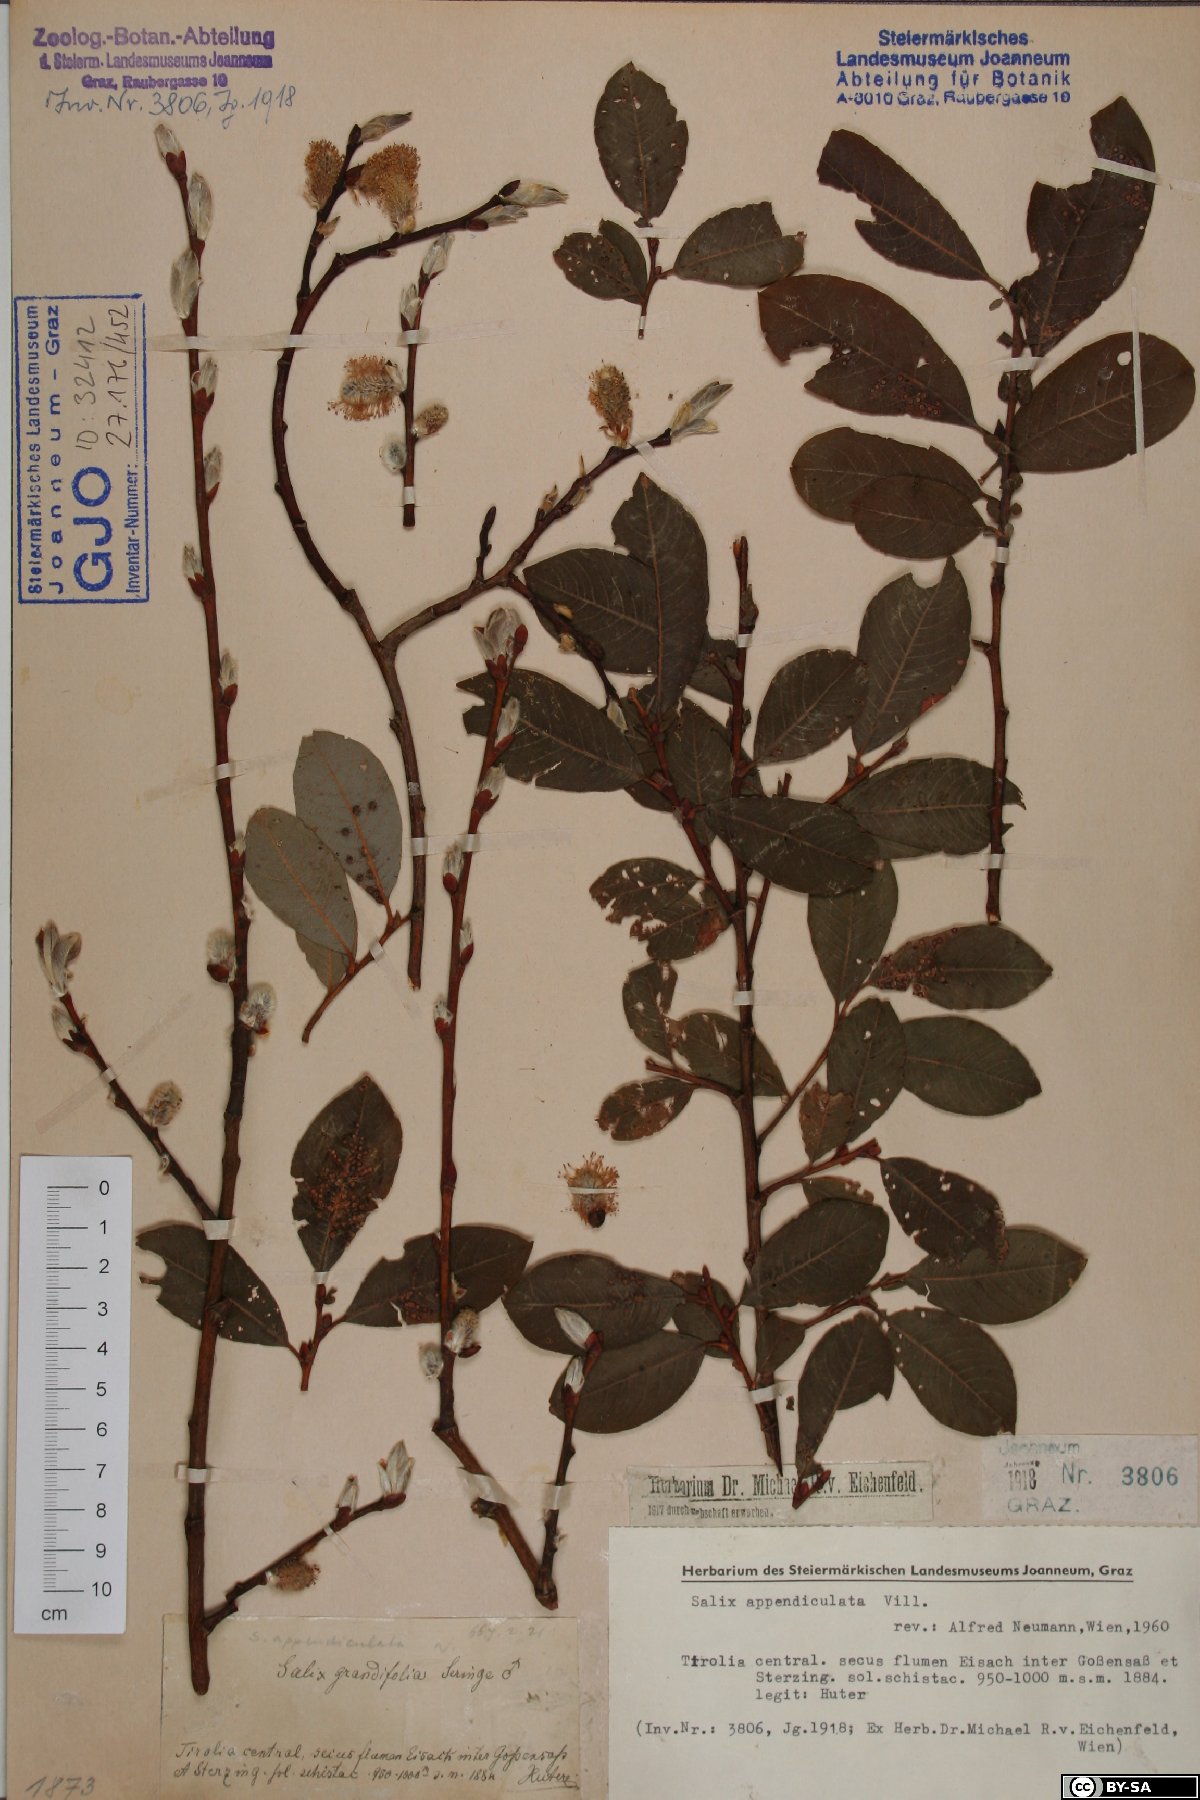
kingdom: Plantae
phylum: Tracheophyta
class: Magnoliopsida
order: Malpighiales
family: Salicaceae
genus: Salix
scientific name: Salix appendiculata
